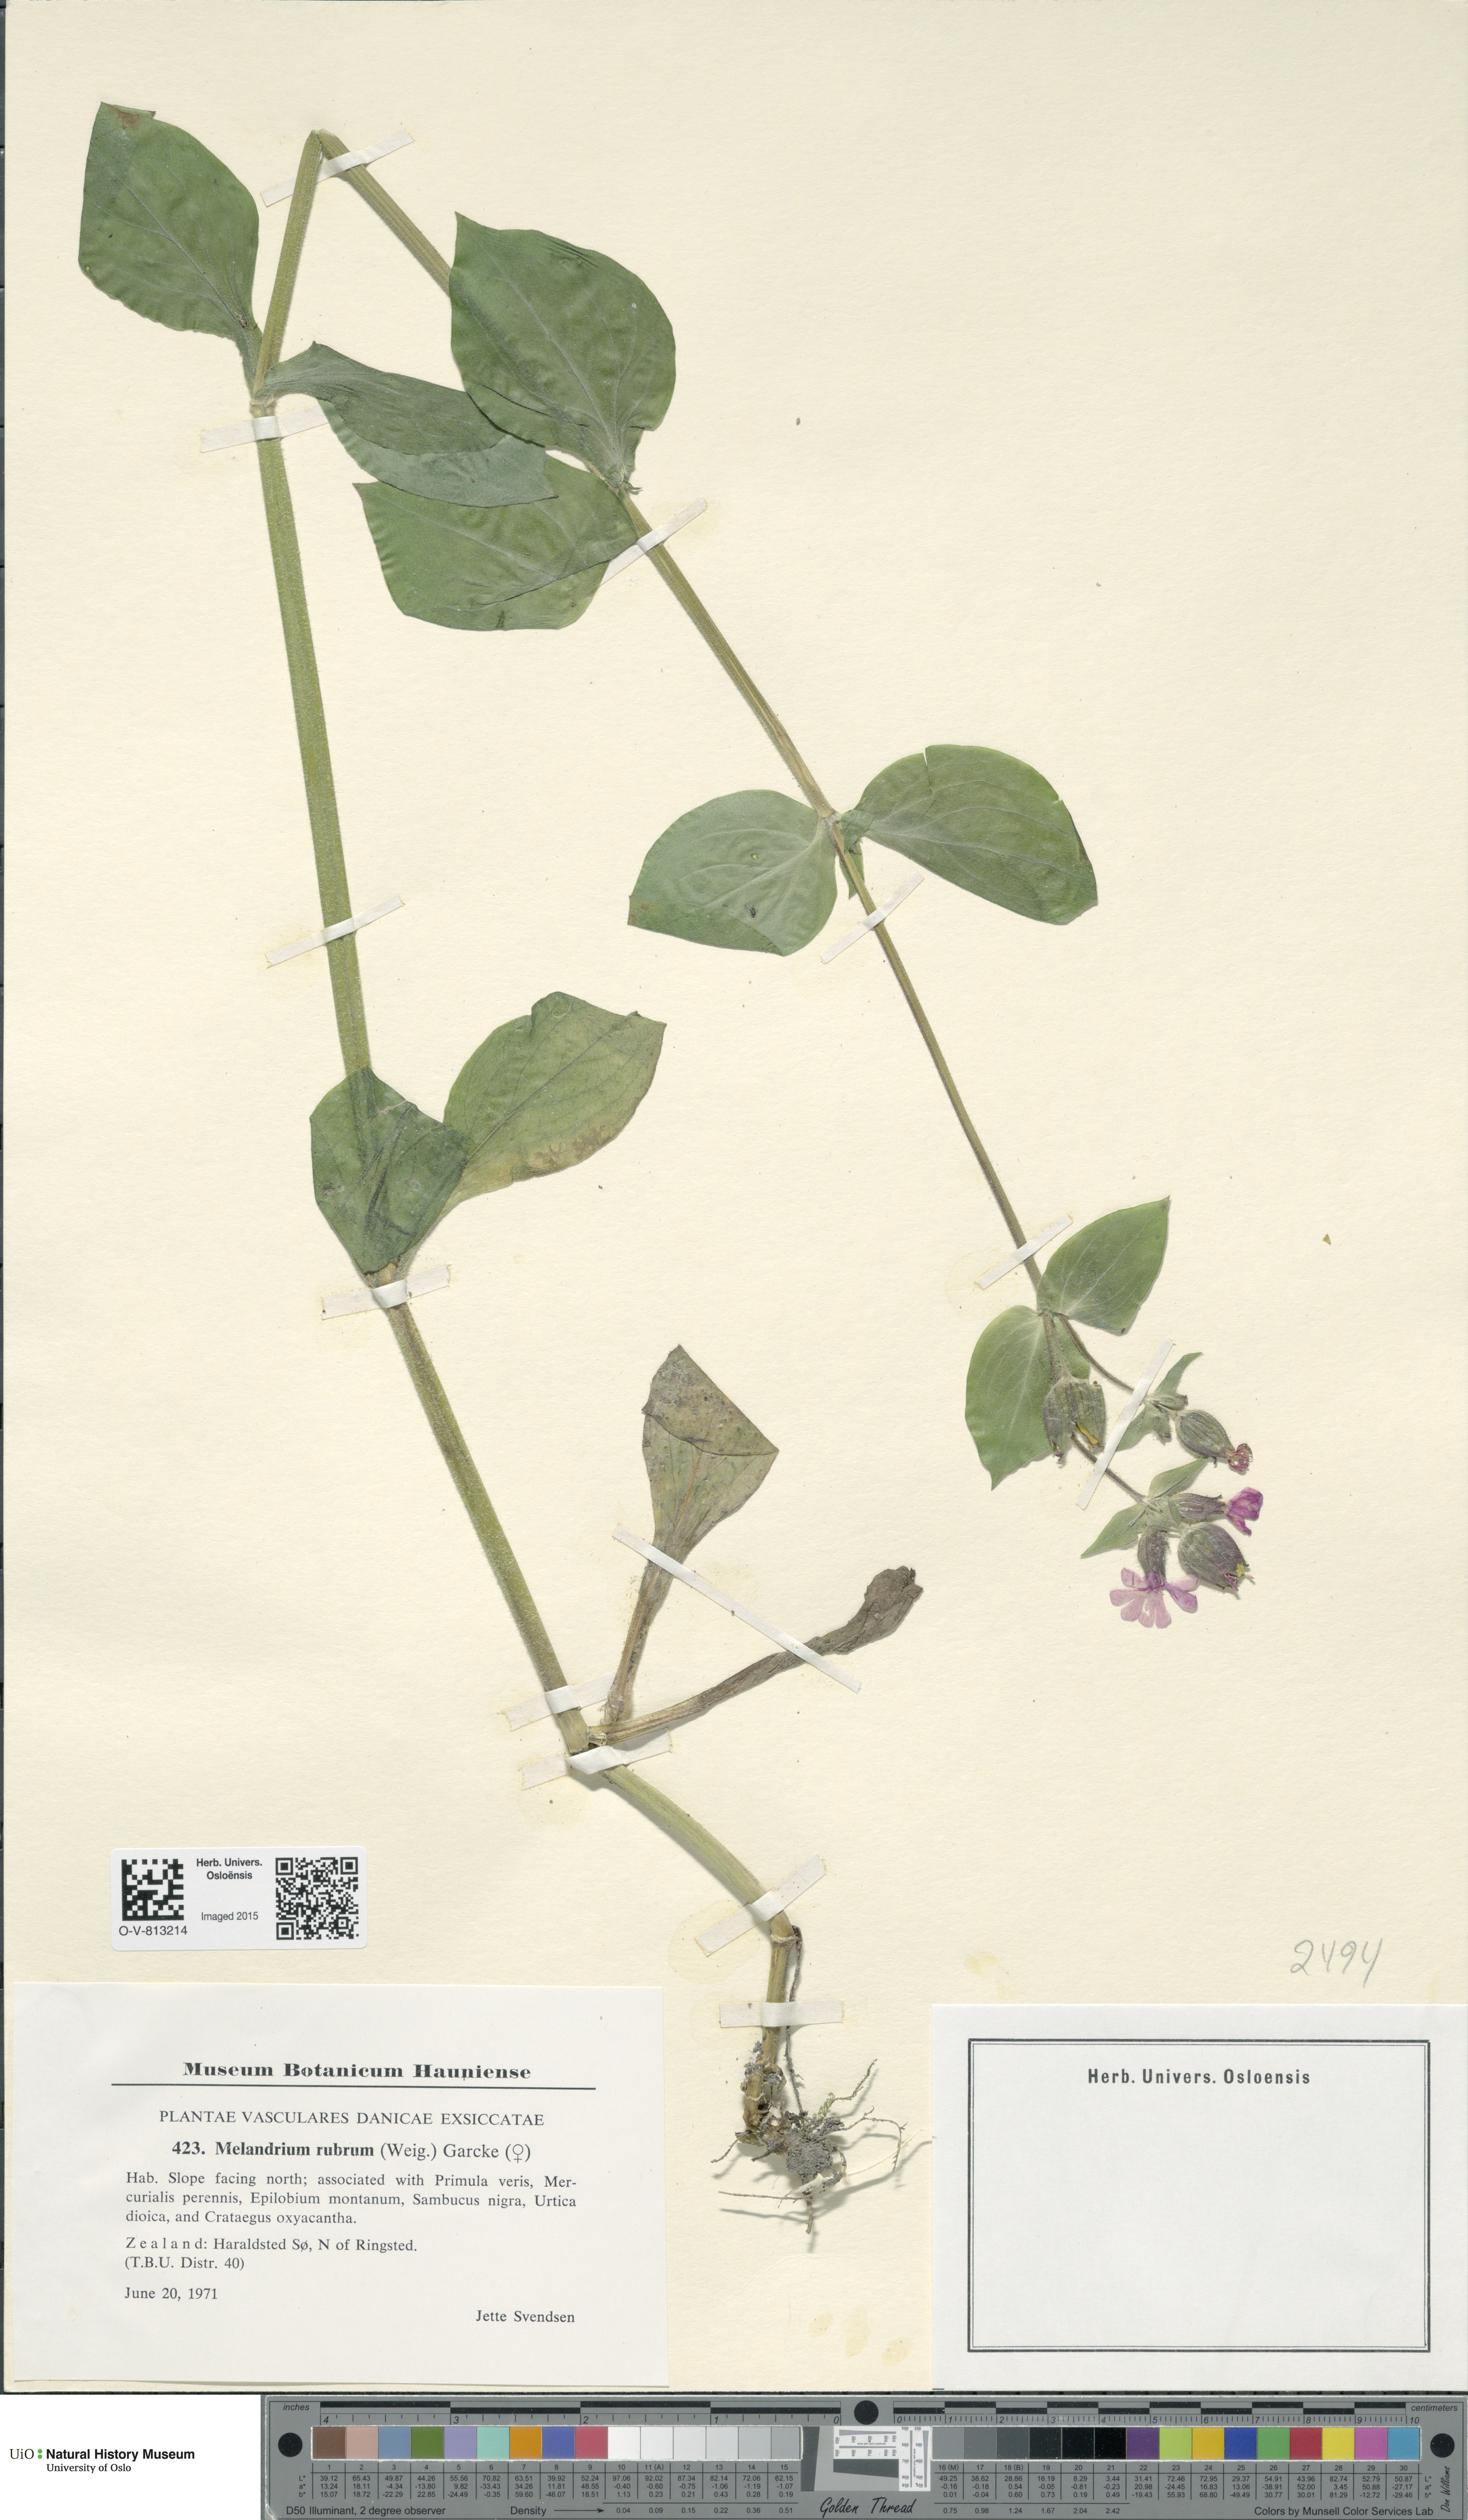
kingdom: Plantae
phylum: Tracheophyta
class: Magnoliopsida
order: Caryophyllales
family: Caryophyllaceae
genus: Silene
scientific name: Silene dioica
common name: Red campion
